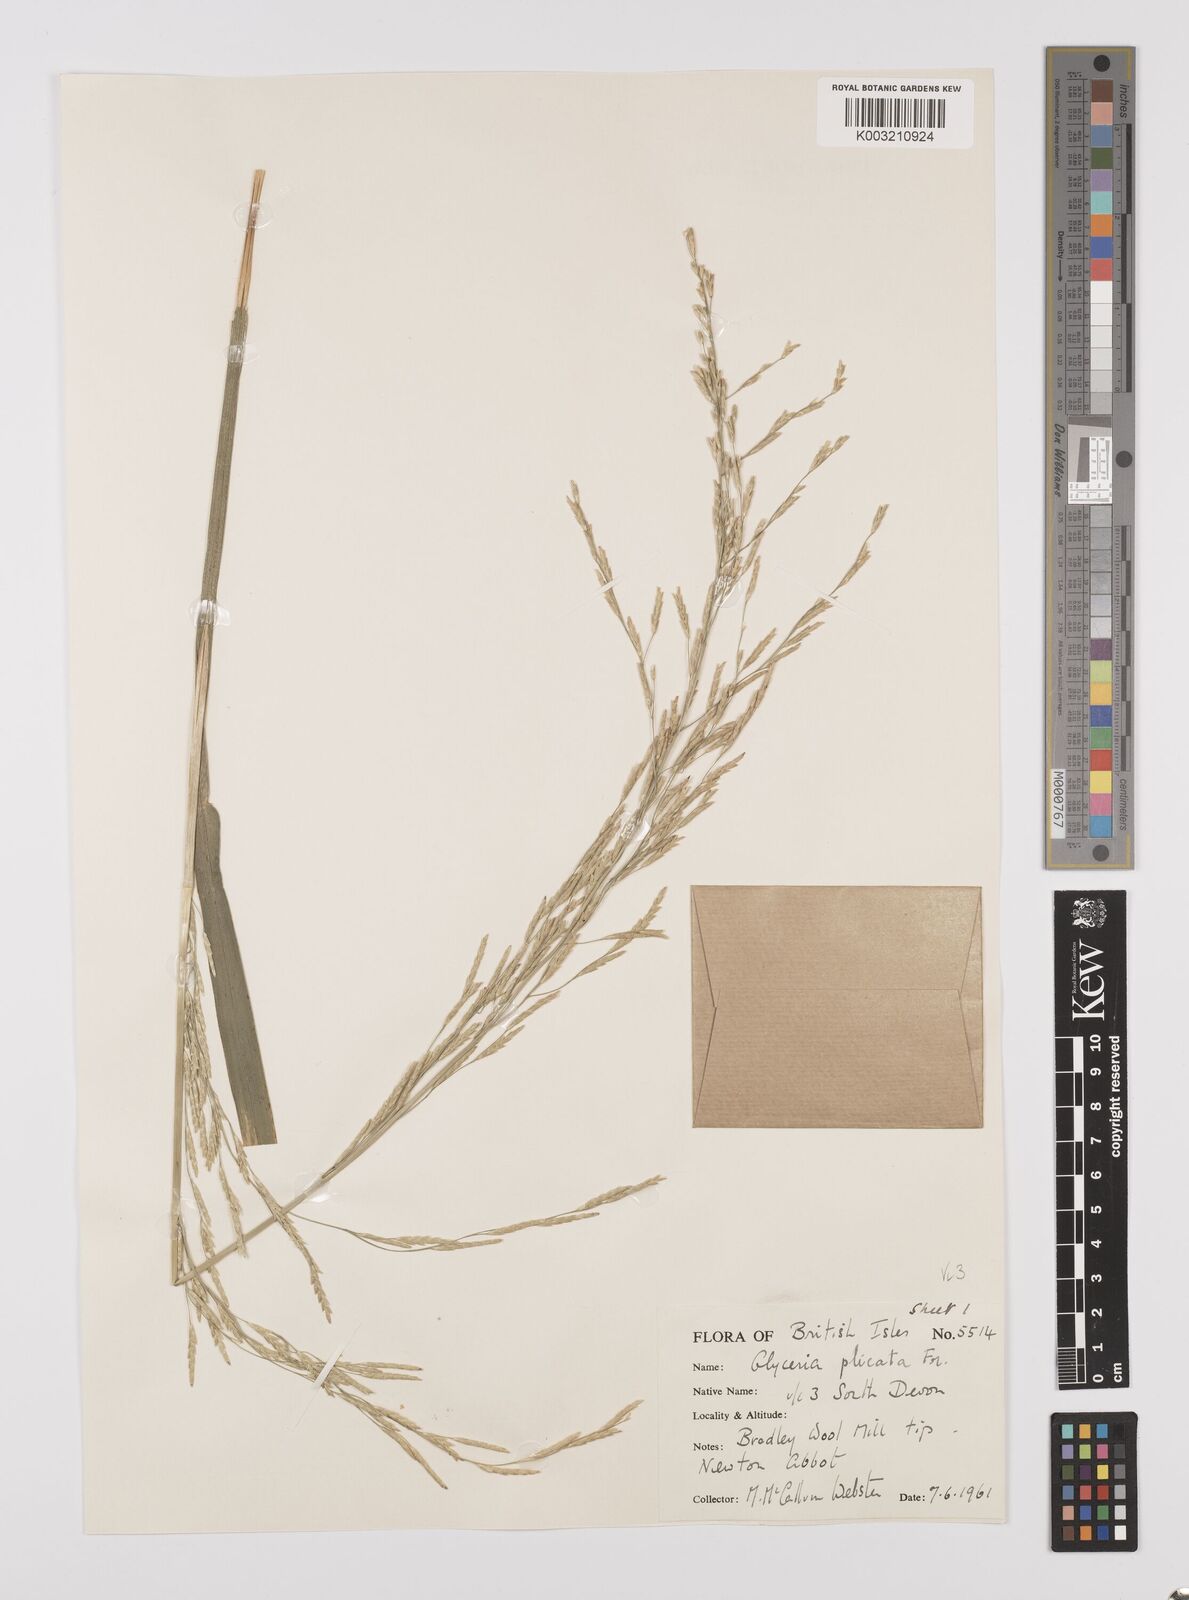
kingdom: Plantae
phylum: Tracheophyta
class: Liliopsida
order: Poales
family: Poaceae
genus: Glyceria
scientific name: Glyceria notata
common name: Plicate sweet-grass
